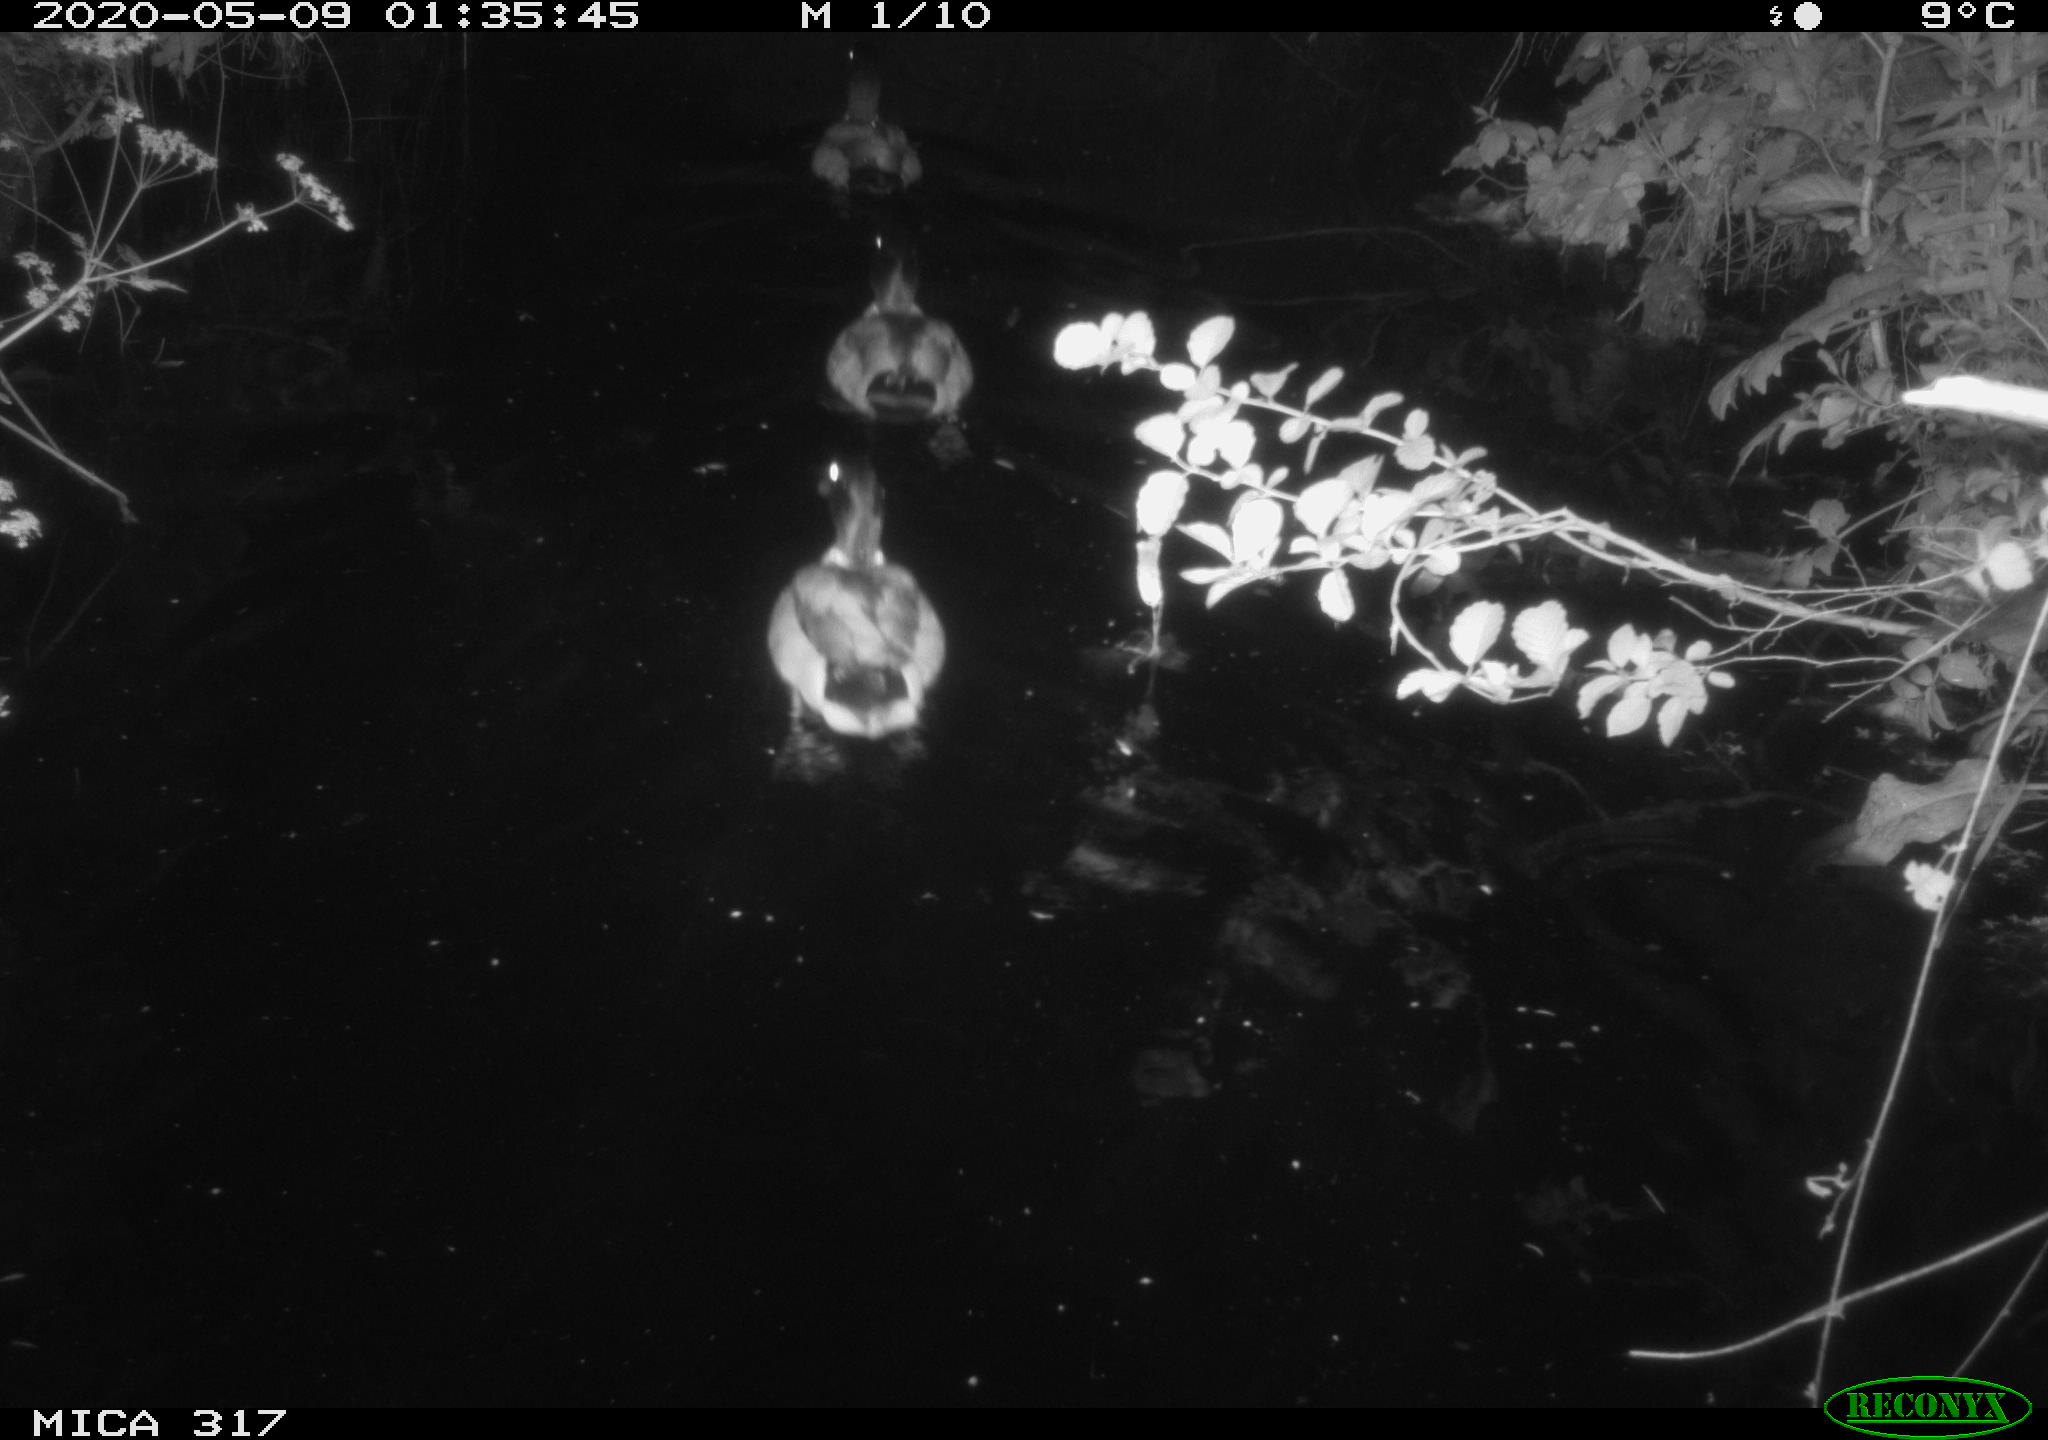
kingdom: Animalia
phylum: Chordata
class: Aves
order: Anseriformes
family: Anatidae
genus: Anas
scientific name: Anas platyrhynchos
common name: Mallard
